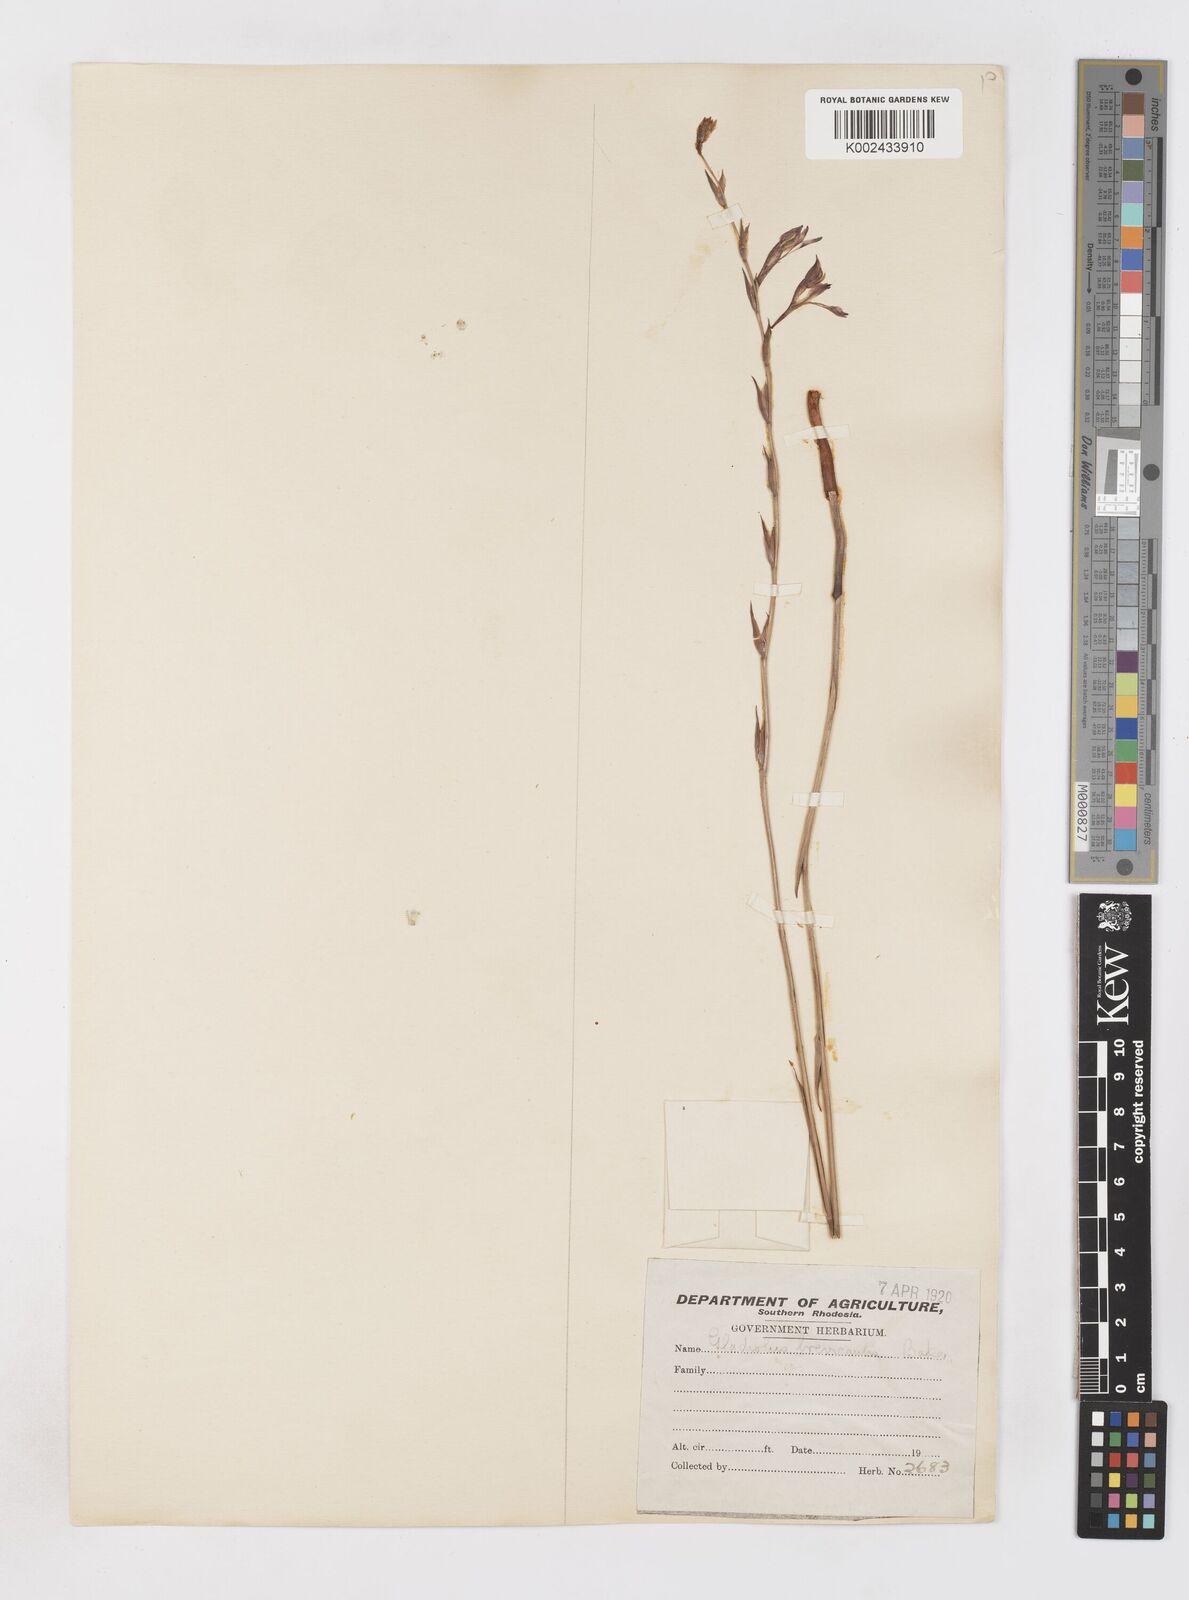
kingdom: Plantae
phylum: Tracheophyta
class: Liliopsida
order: Asparagales
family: Iridaceae
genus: Gladiolus
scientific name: Gladiolus unguiculatus
